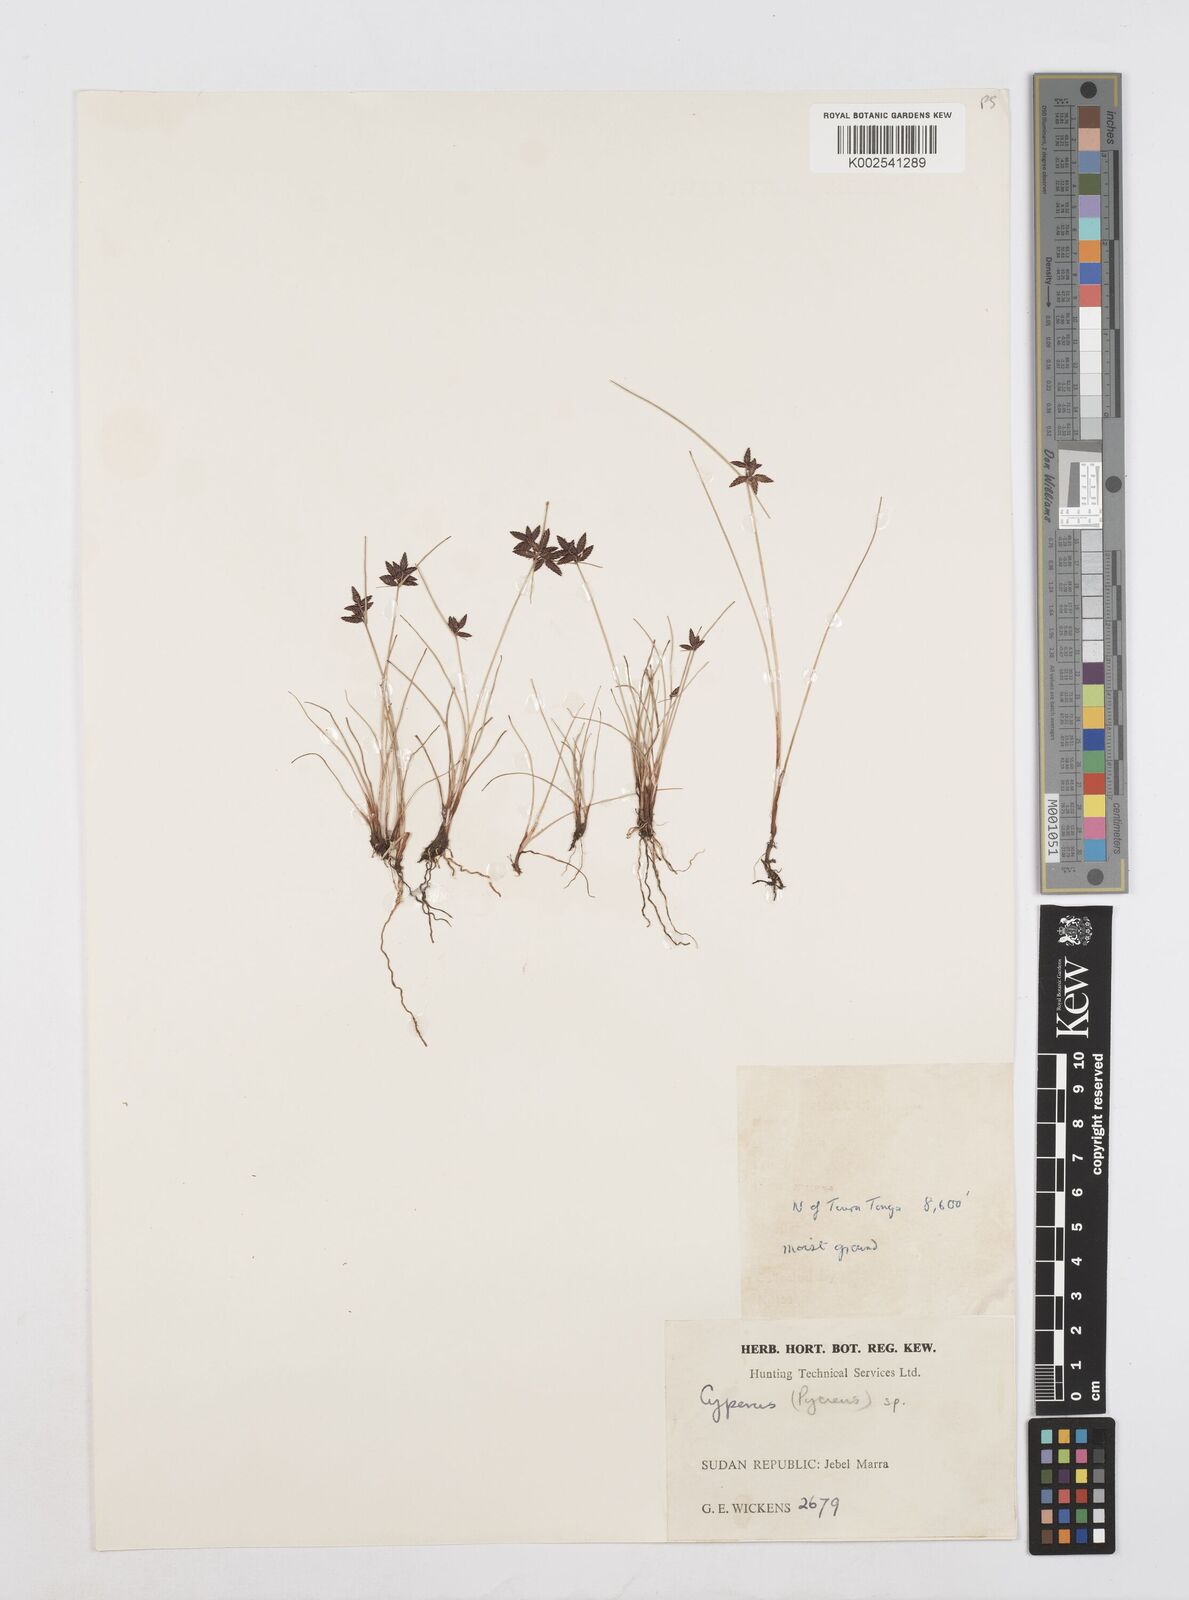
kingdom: Plantae
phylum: Tracheophyta
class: Liliopsida
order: Poales
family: Cyperaceae
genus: Cyperus
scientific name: Cyperus
